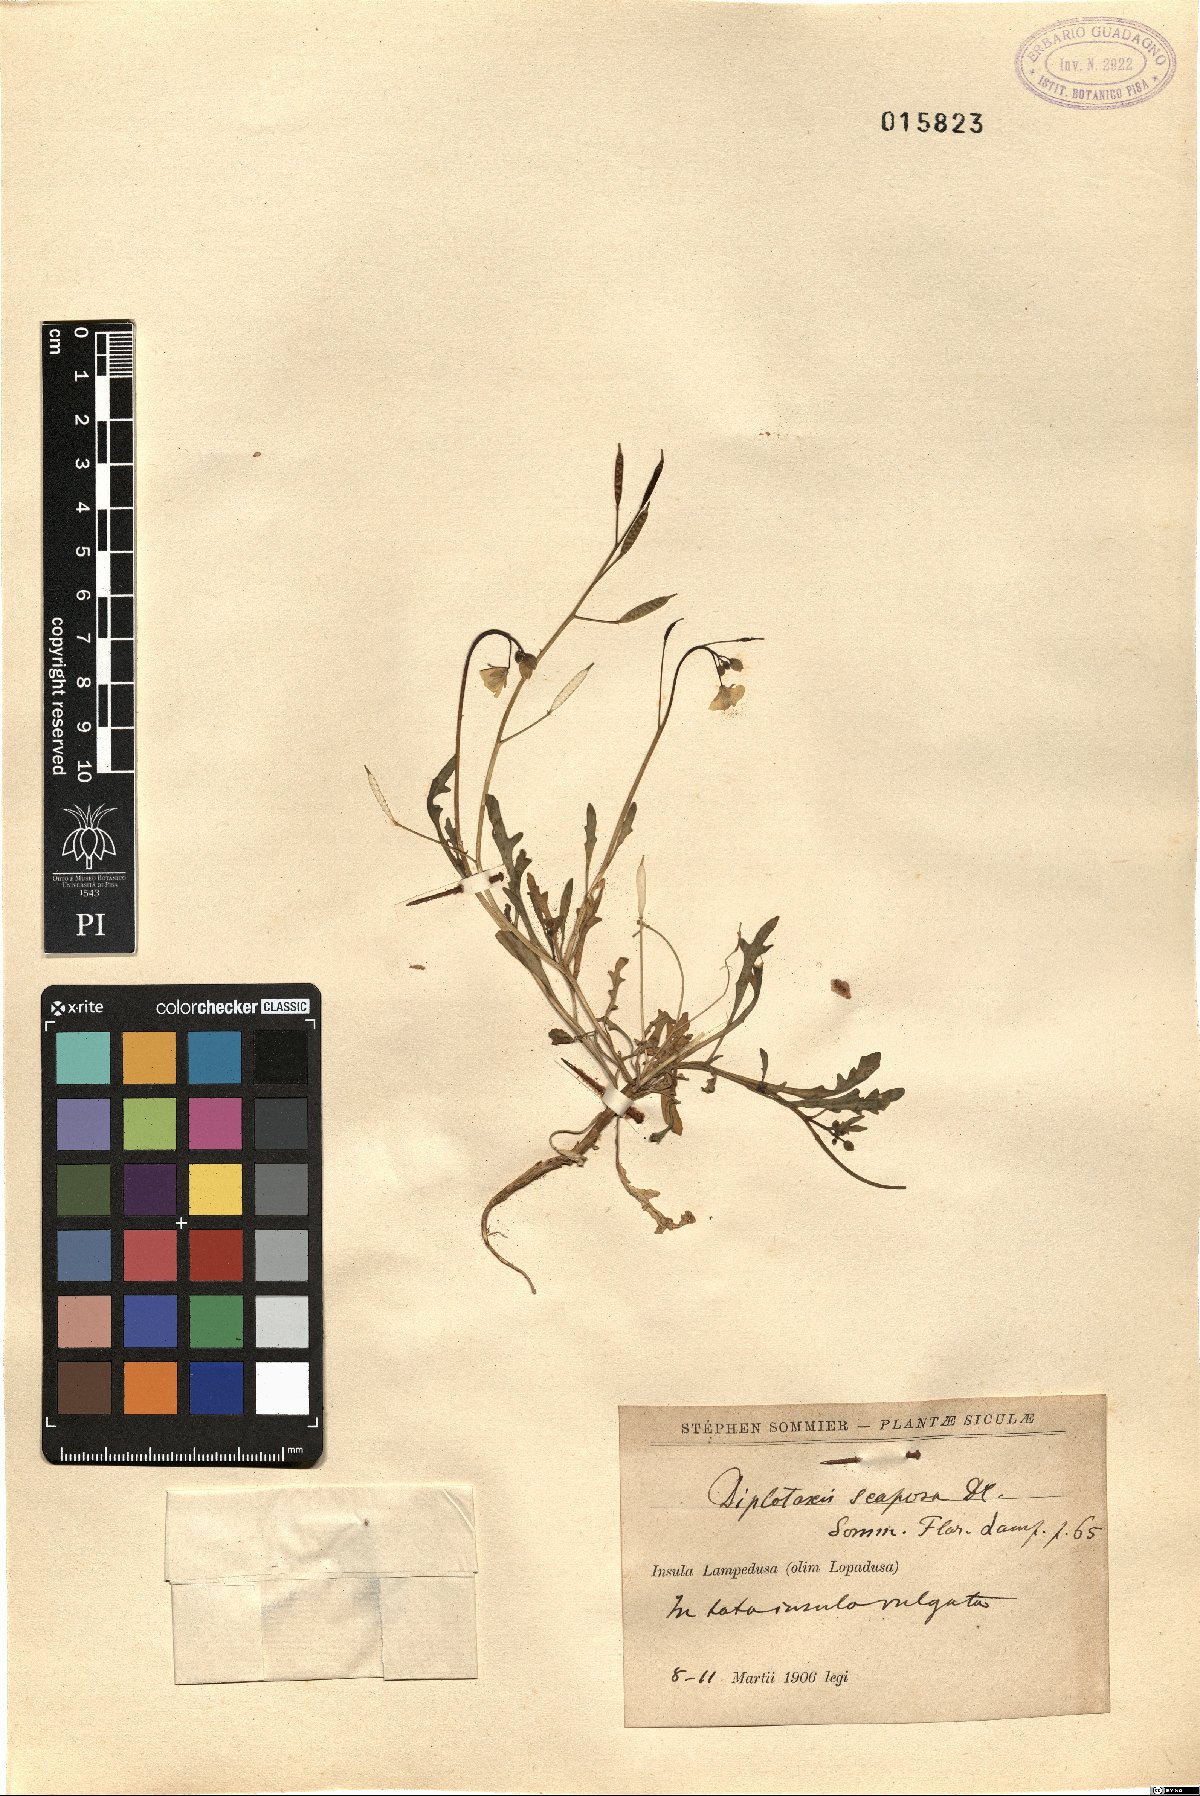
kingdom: Plantae
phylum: Tracheophyta
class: Magnoliopsida
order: Brassicales
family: Brassicaceae
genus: Diplotaxis
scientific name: Diplotaxis scaposa
